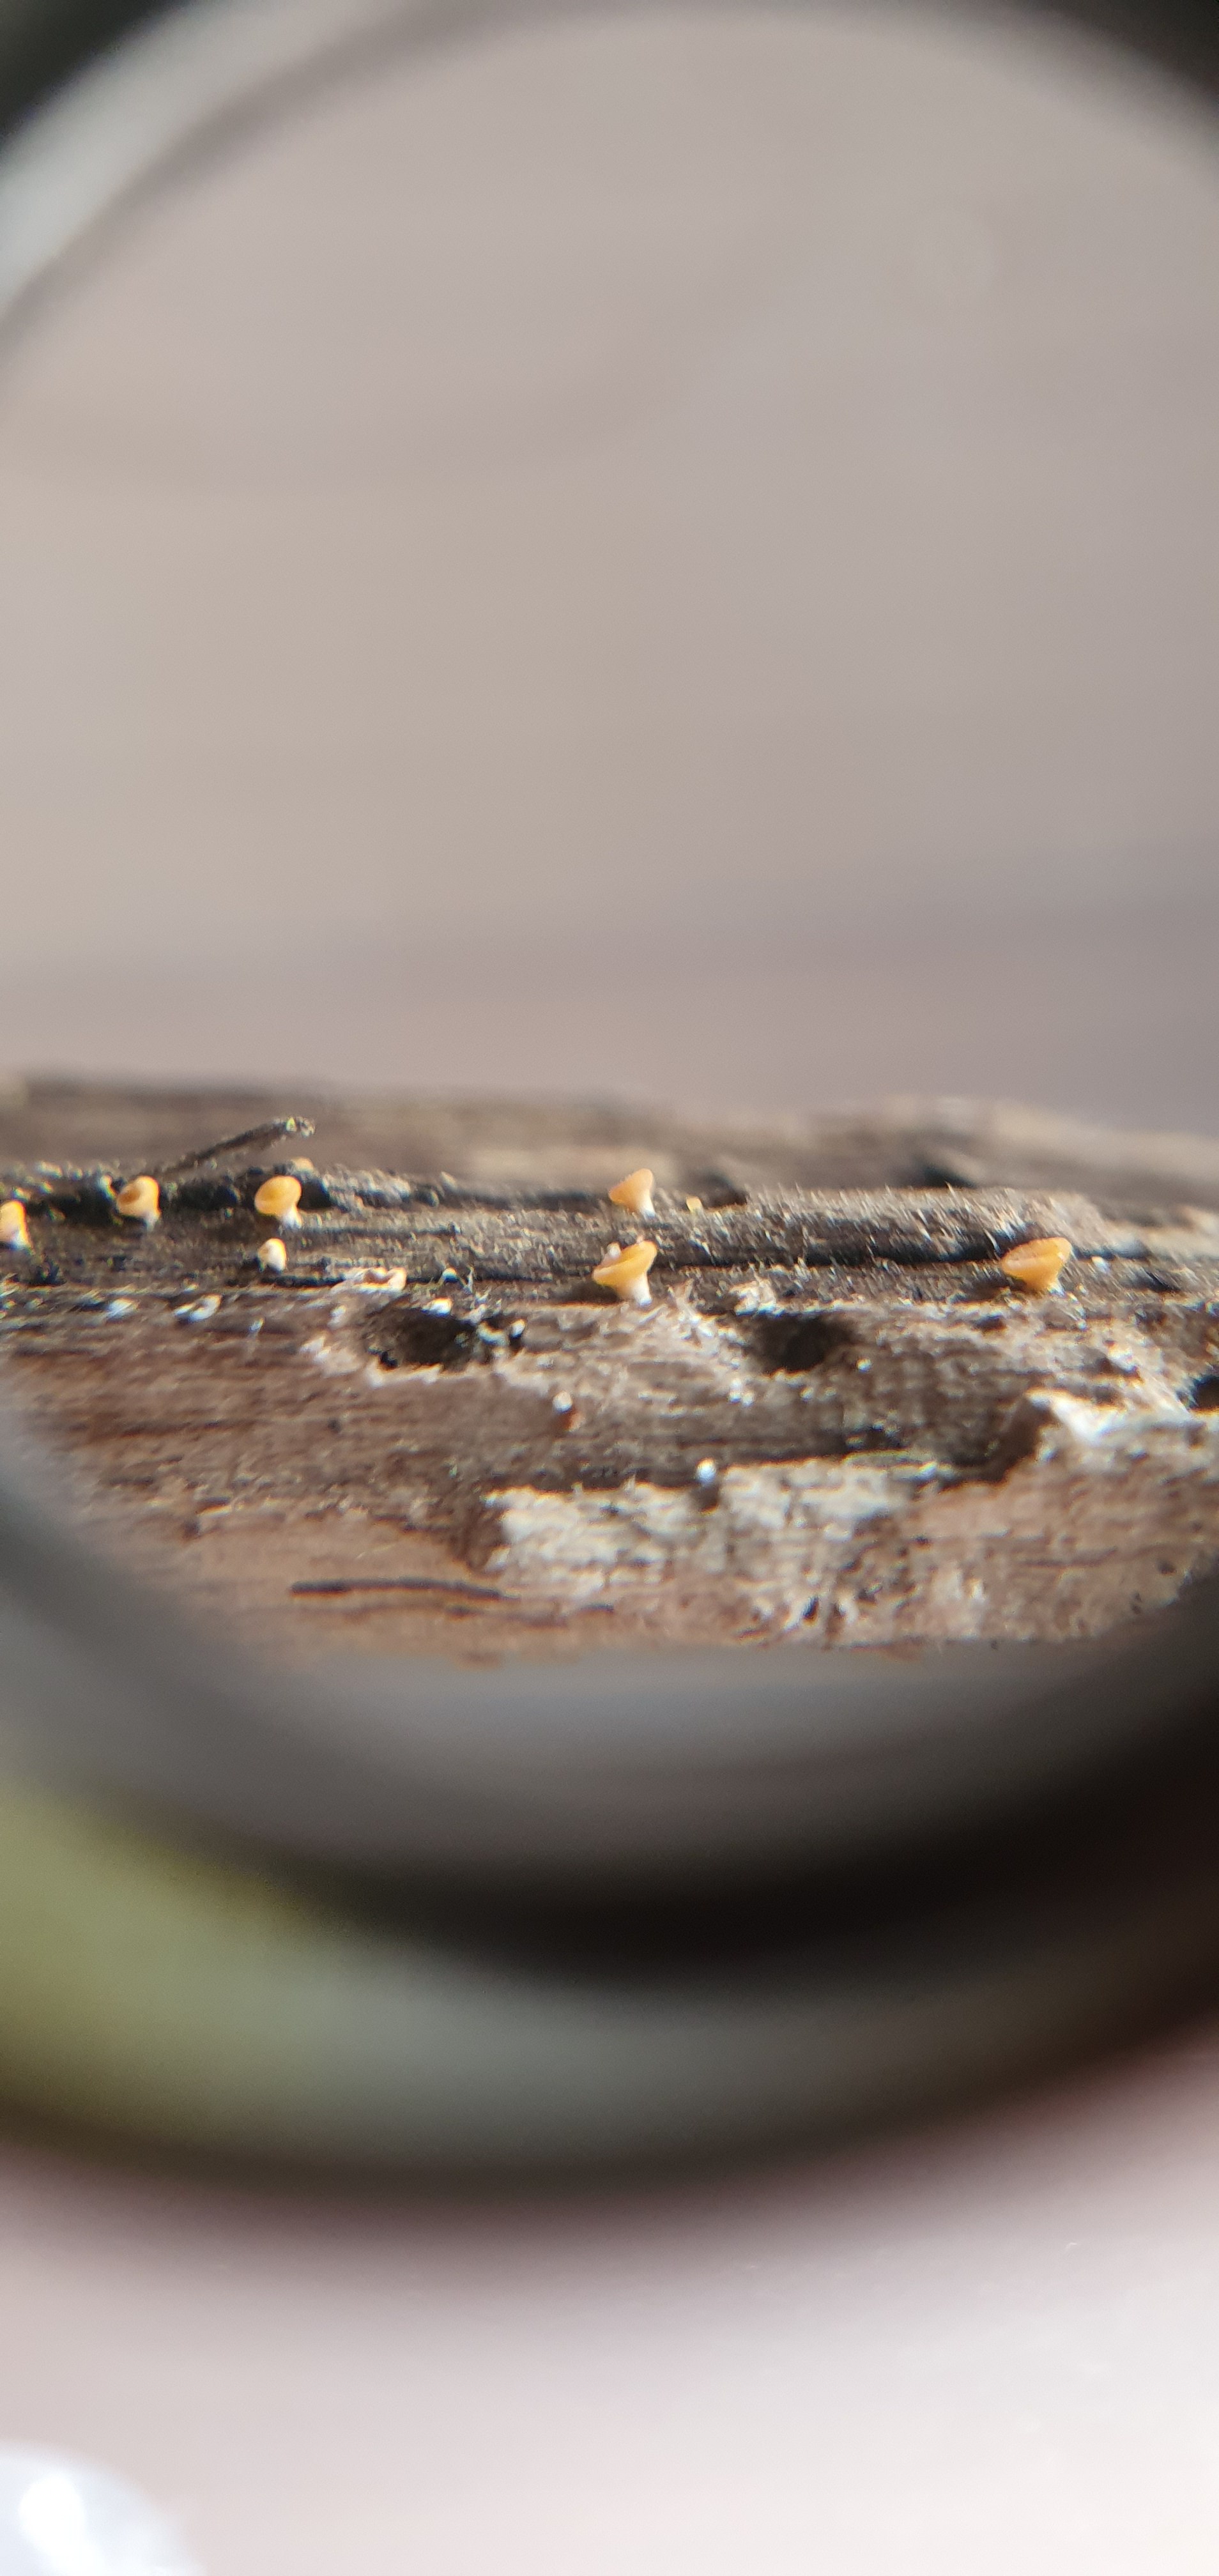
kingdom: Fungi
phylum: Ascomycota
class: Leotiomycetes
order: Helotiales
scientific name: Helotiales
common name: stilkskiveordenen
